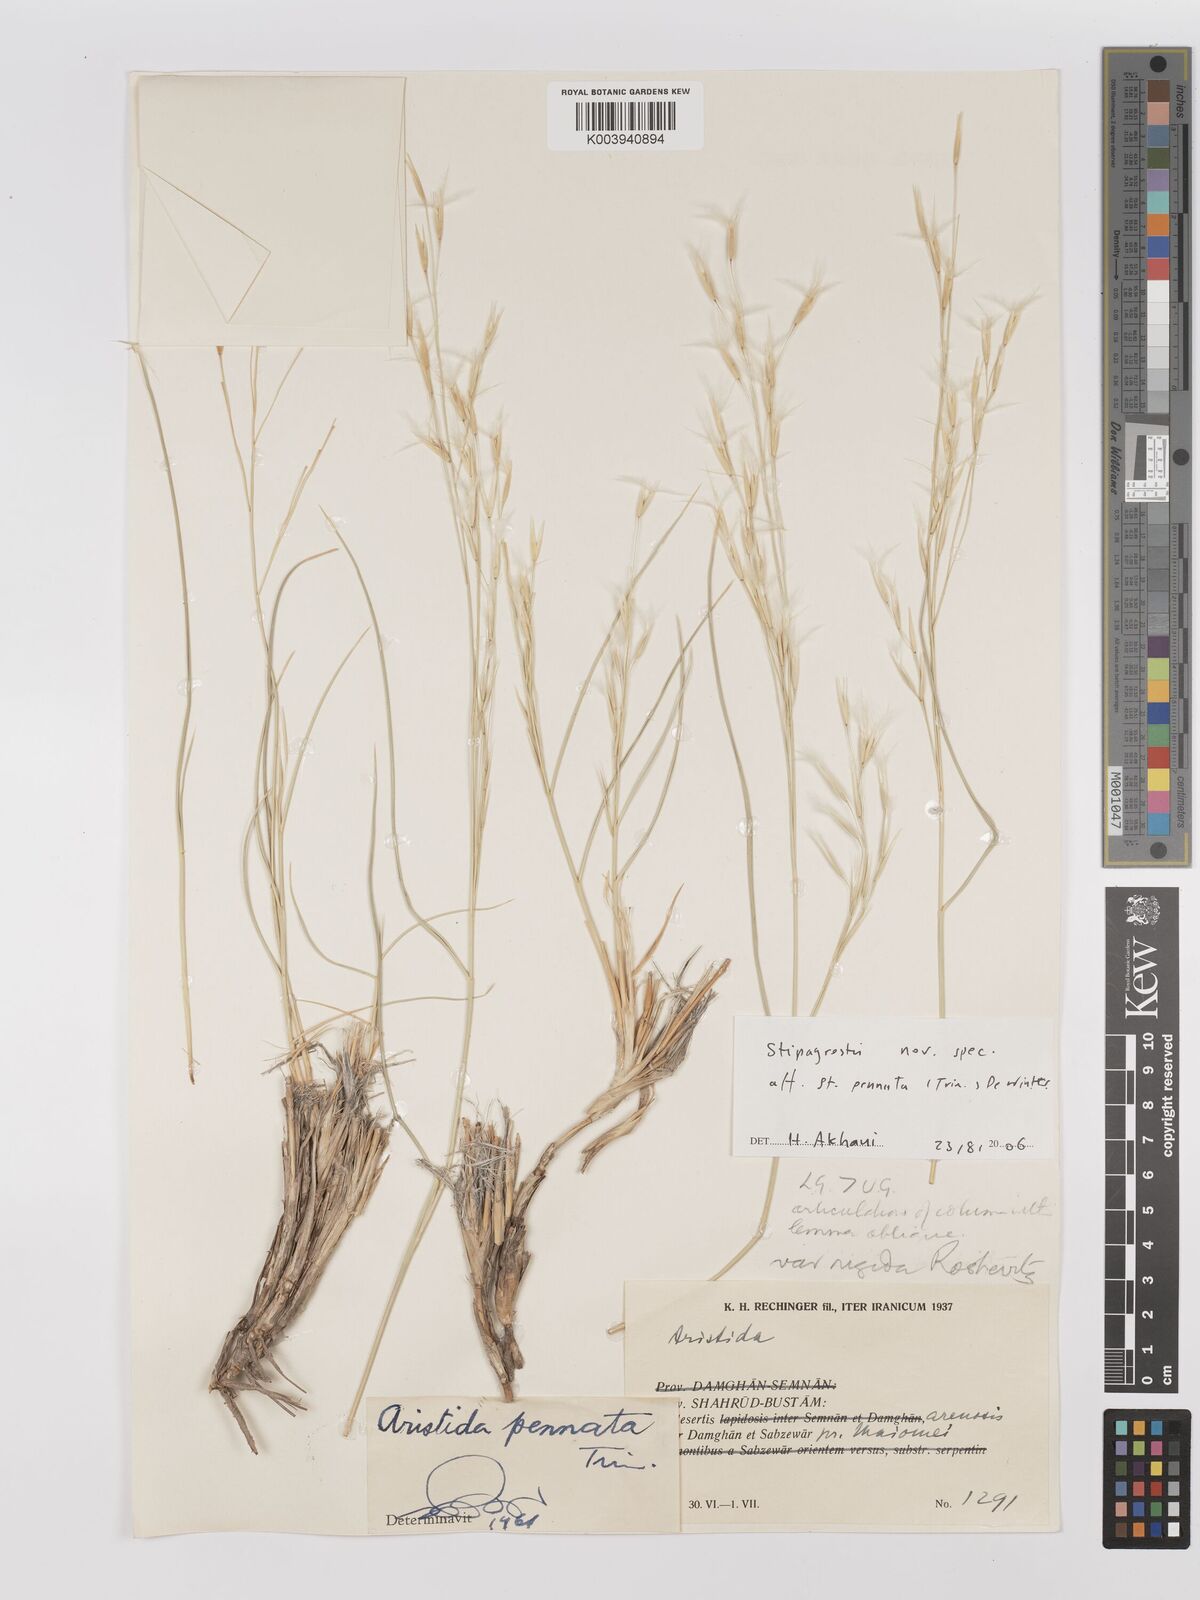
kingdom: Plantae
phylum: Tracheophyta
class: Liliopsida
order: Poales
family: Poaceae
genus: Stipagrostis
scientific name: Stipagrostis
